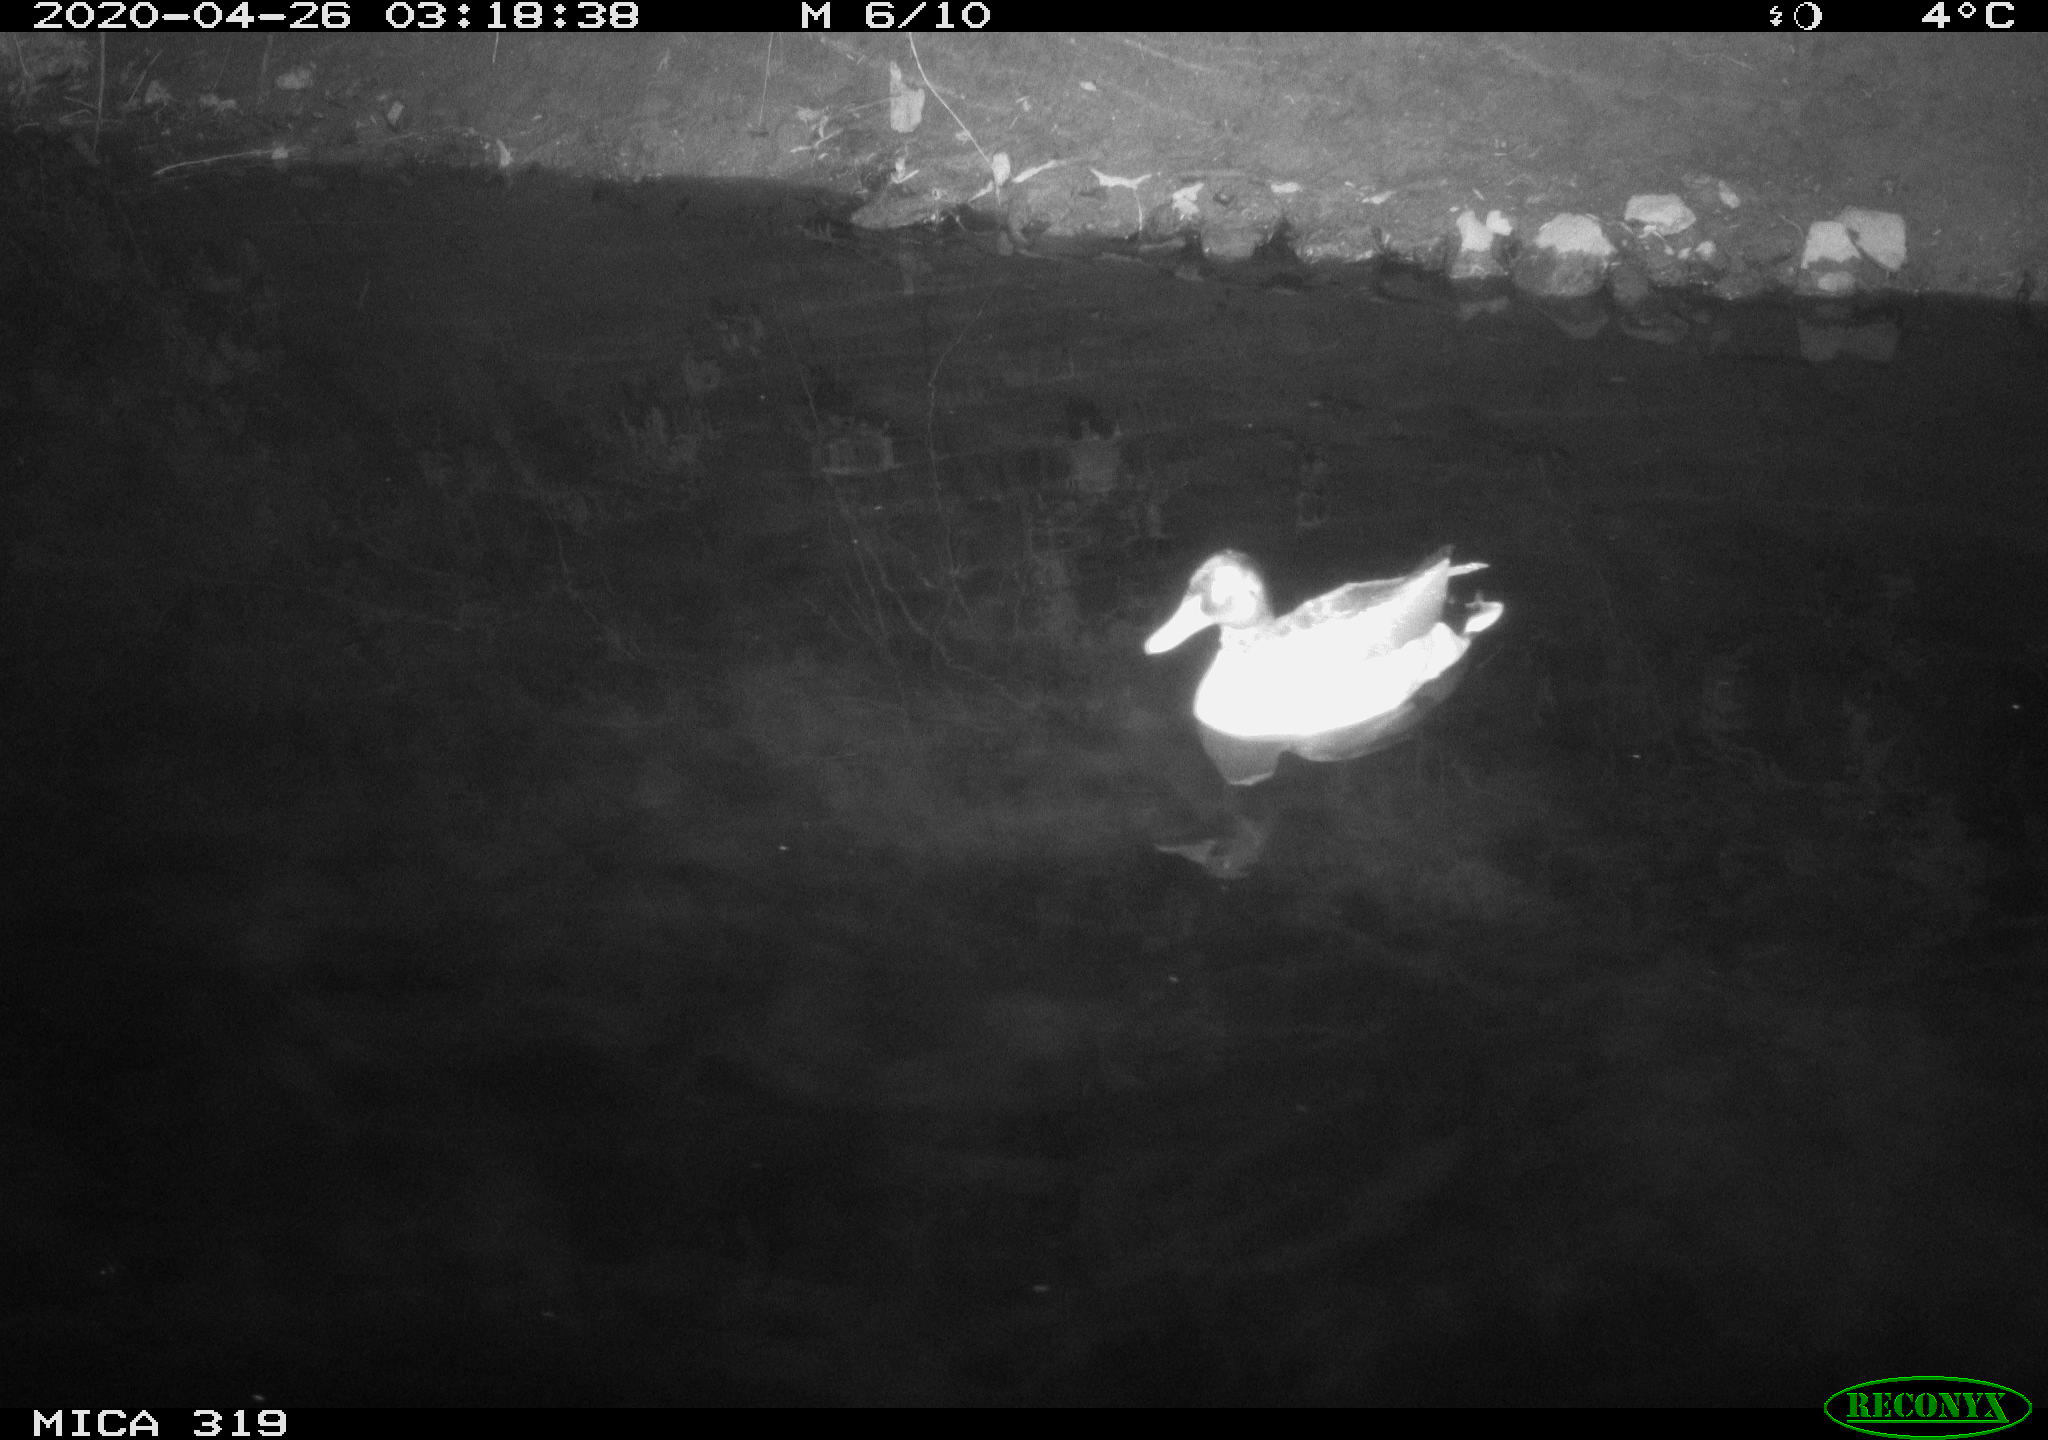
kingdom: Animalia
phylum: Chordata
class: Aves
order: Anseriformes
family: Anatidae
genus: Anas
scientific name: Anas platyrhynchos
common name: Mallard
